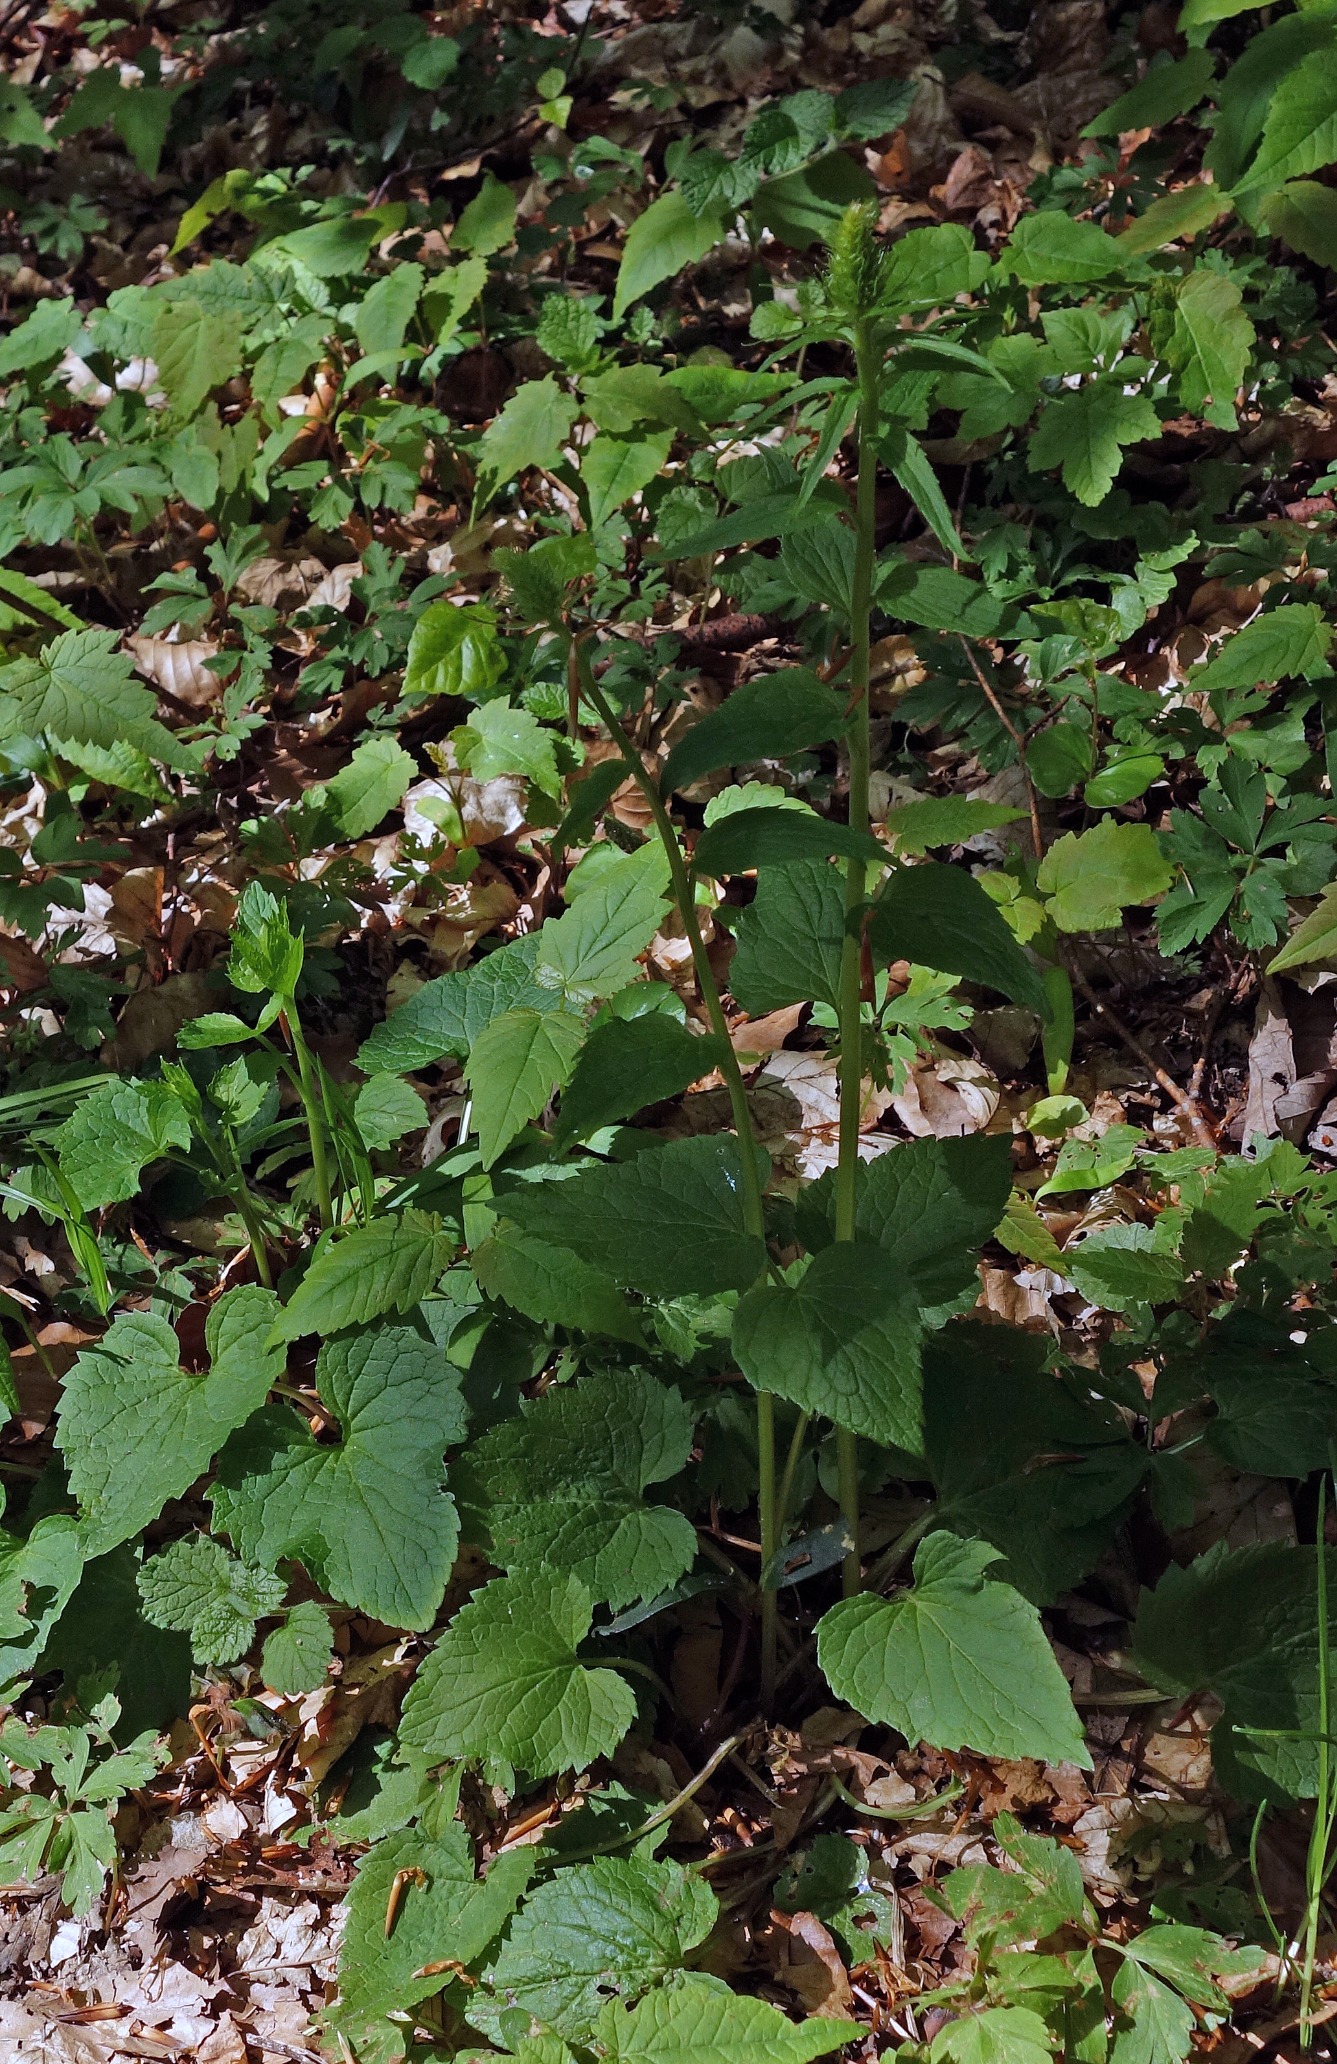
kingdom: Plantae
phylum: Tracheophyta
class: Magnoliopsida
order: Asterales
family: Campanulaceae
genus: Phyteuma
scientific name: Phyteuma spicatum
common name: Aks-rapunsel
